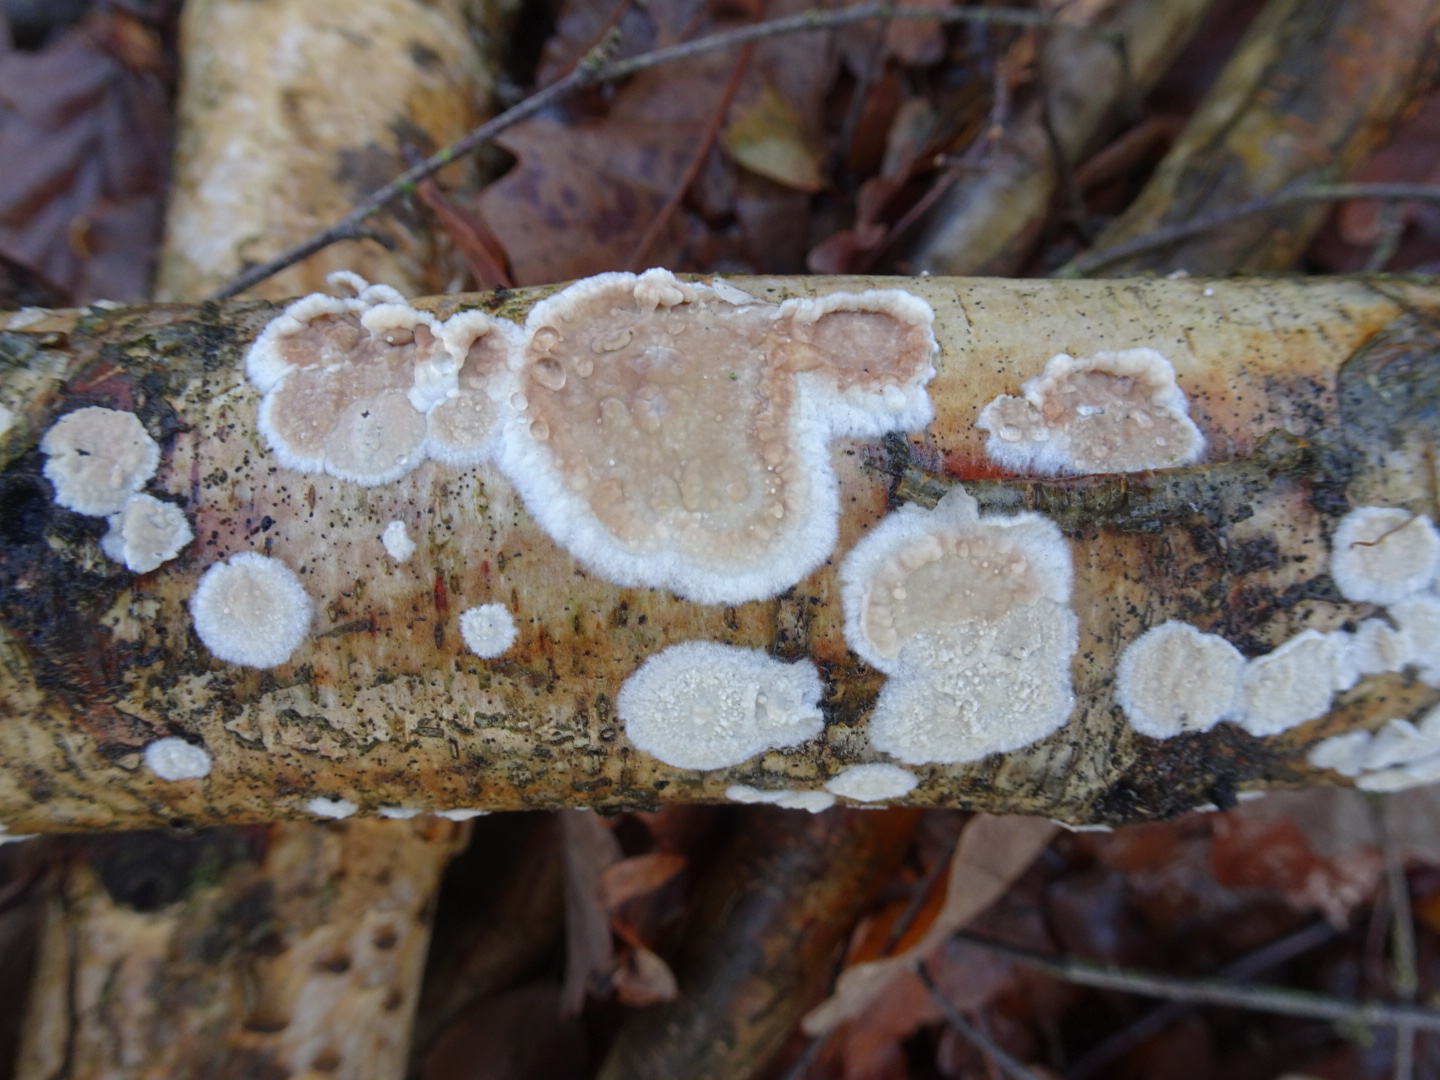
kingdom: Fungi
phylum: Basidiomycota
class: Agaricomycetes
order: Russulales
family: Stereaceae
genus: Stereum
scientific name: Stereum rugosum
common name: rynket lædersvamp
